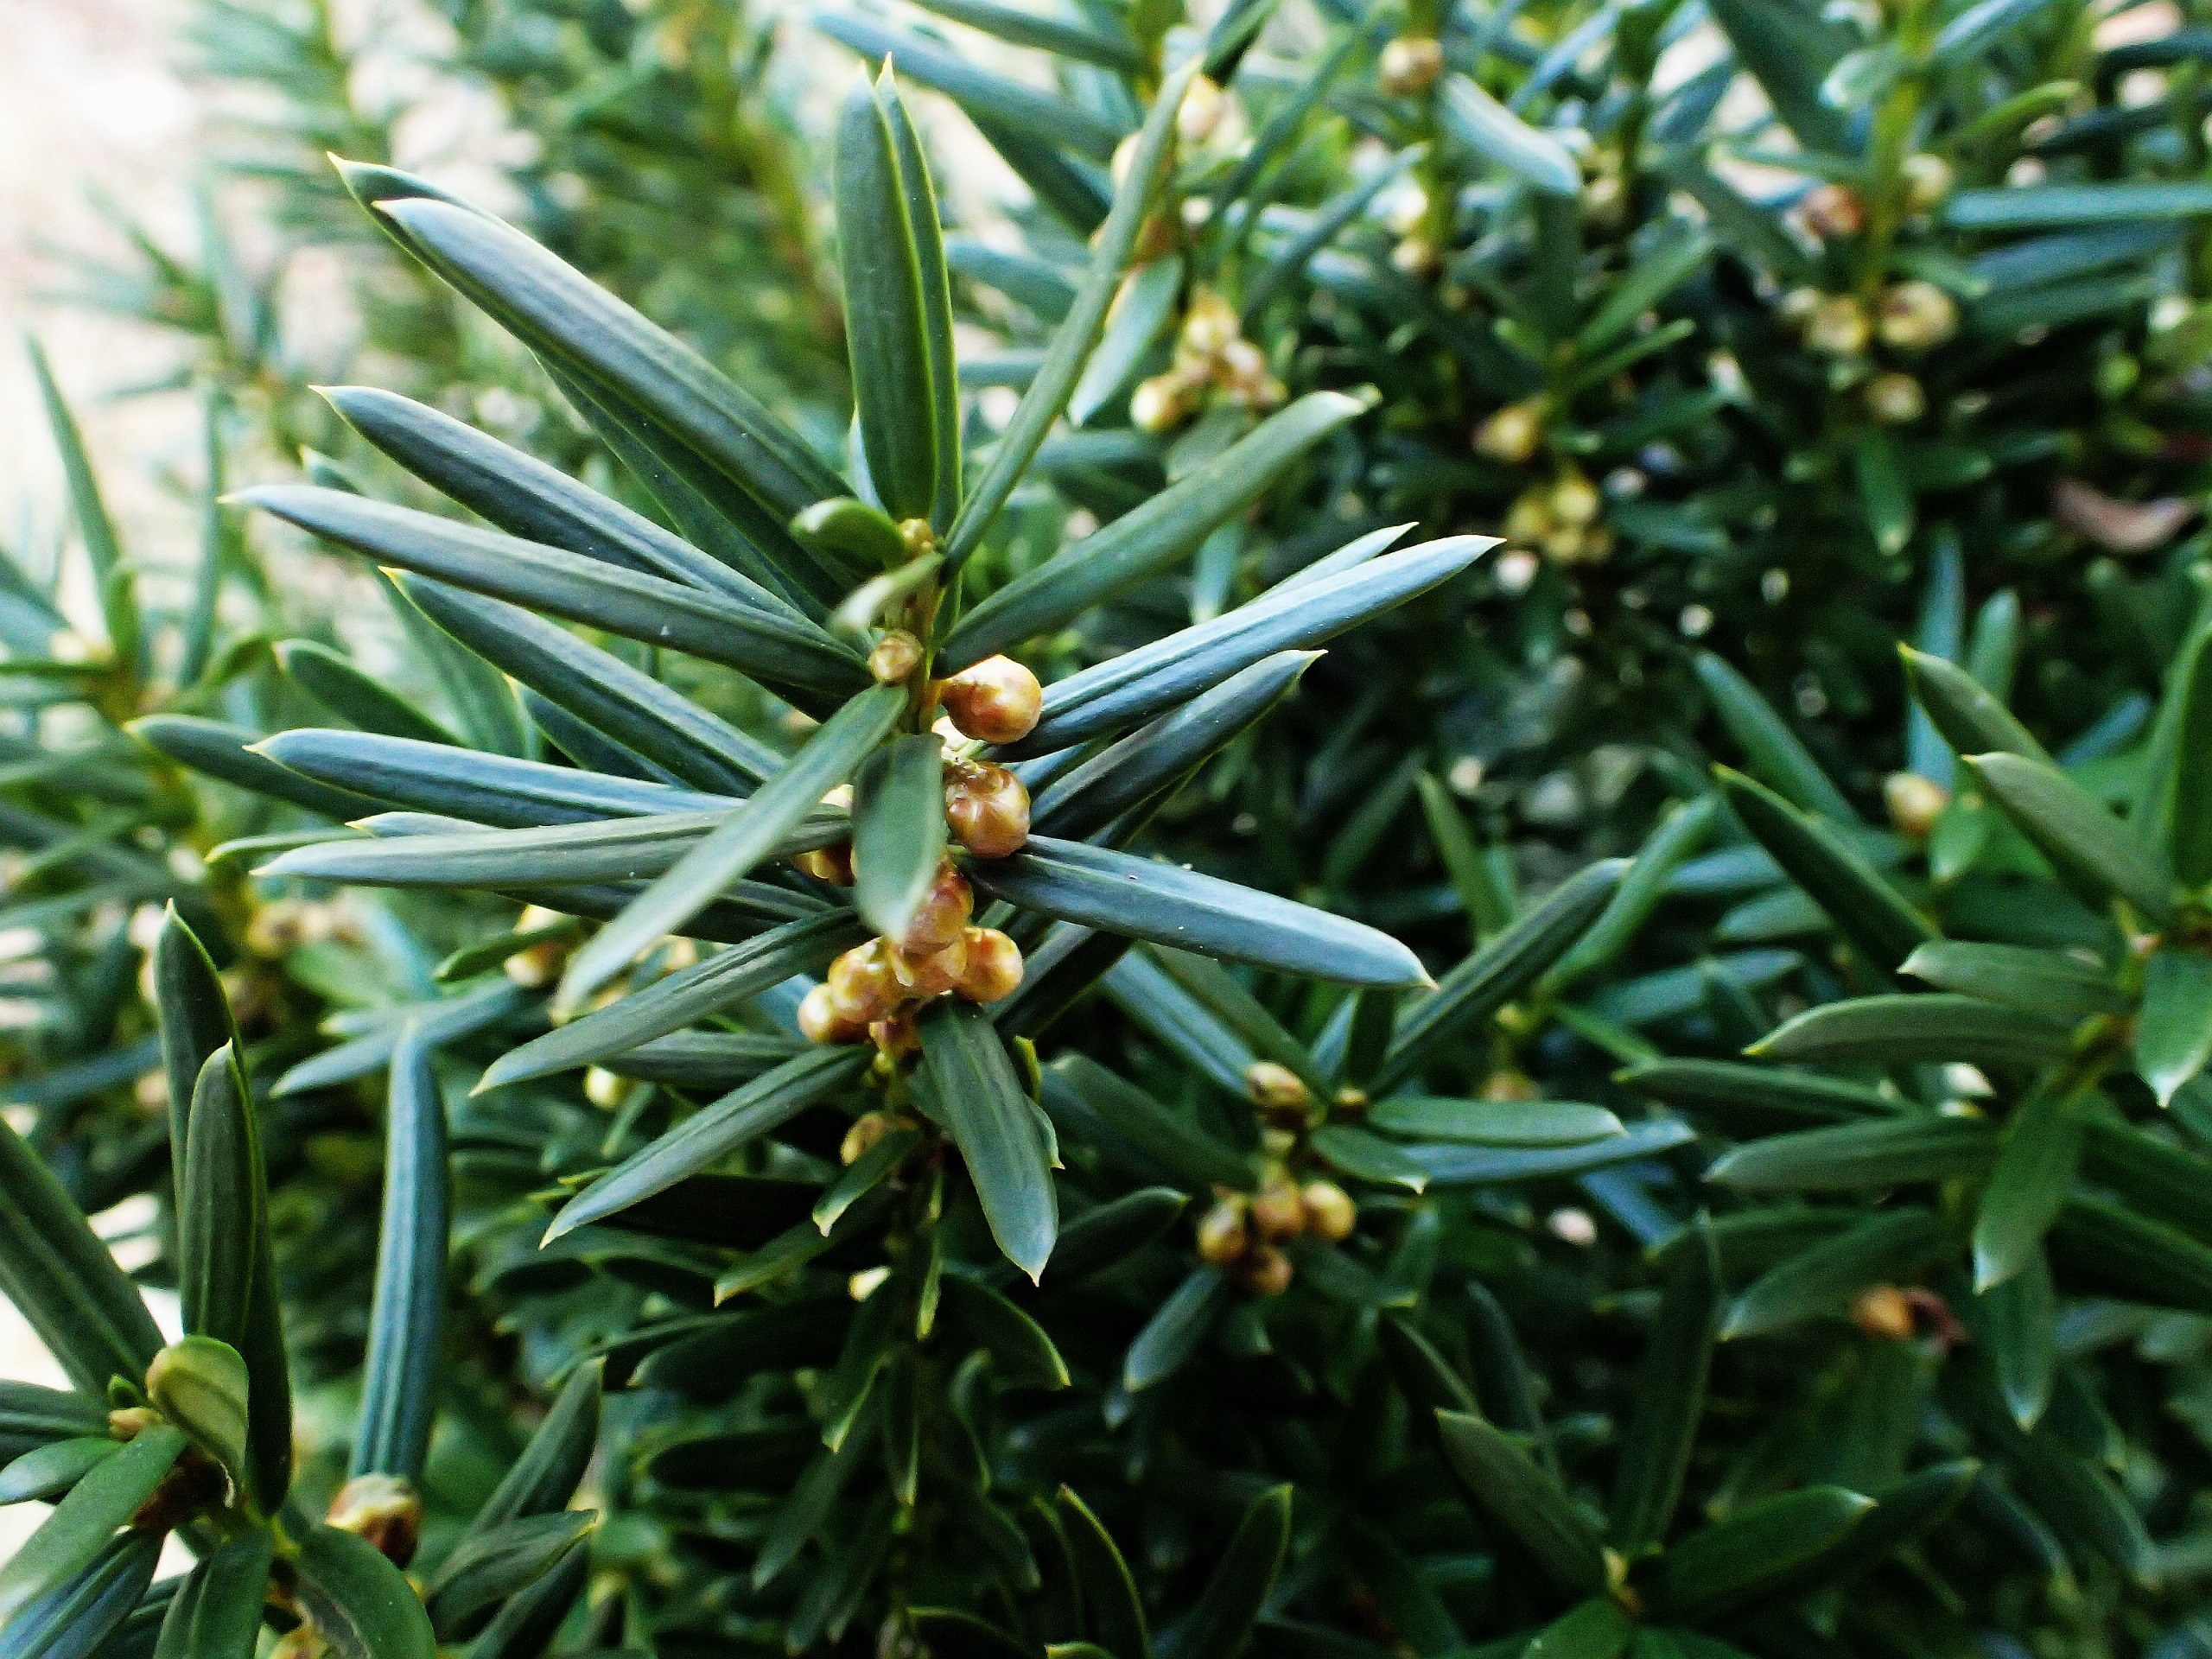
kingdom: Plantae
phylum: Tracheophyta
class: Pinopsida
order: Pinales
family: Taxaceae
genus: Taxus
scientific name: Taxus baccata
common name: Almindelig taks
